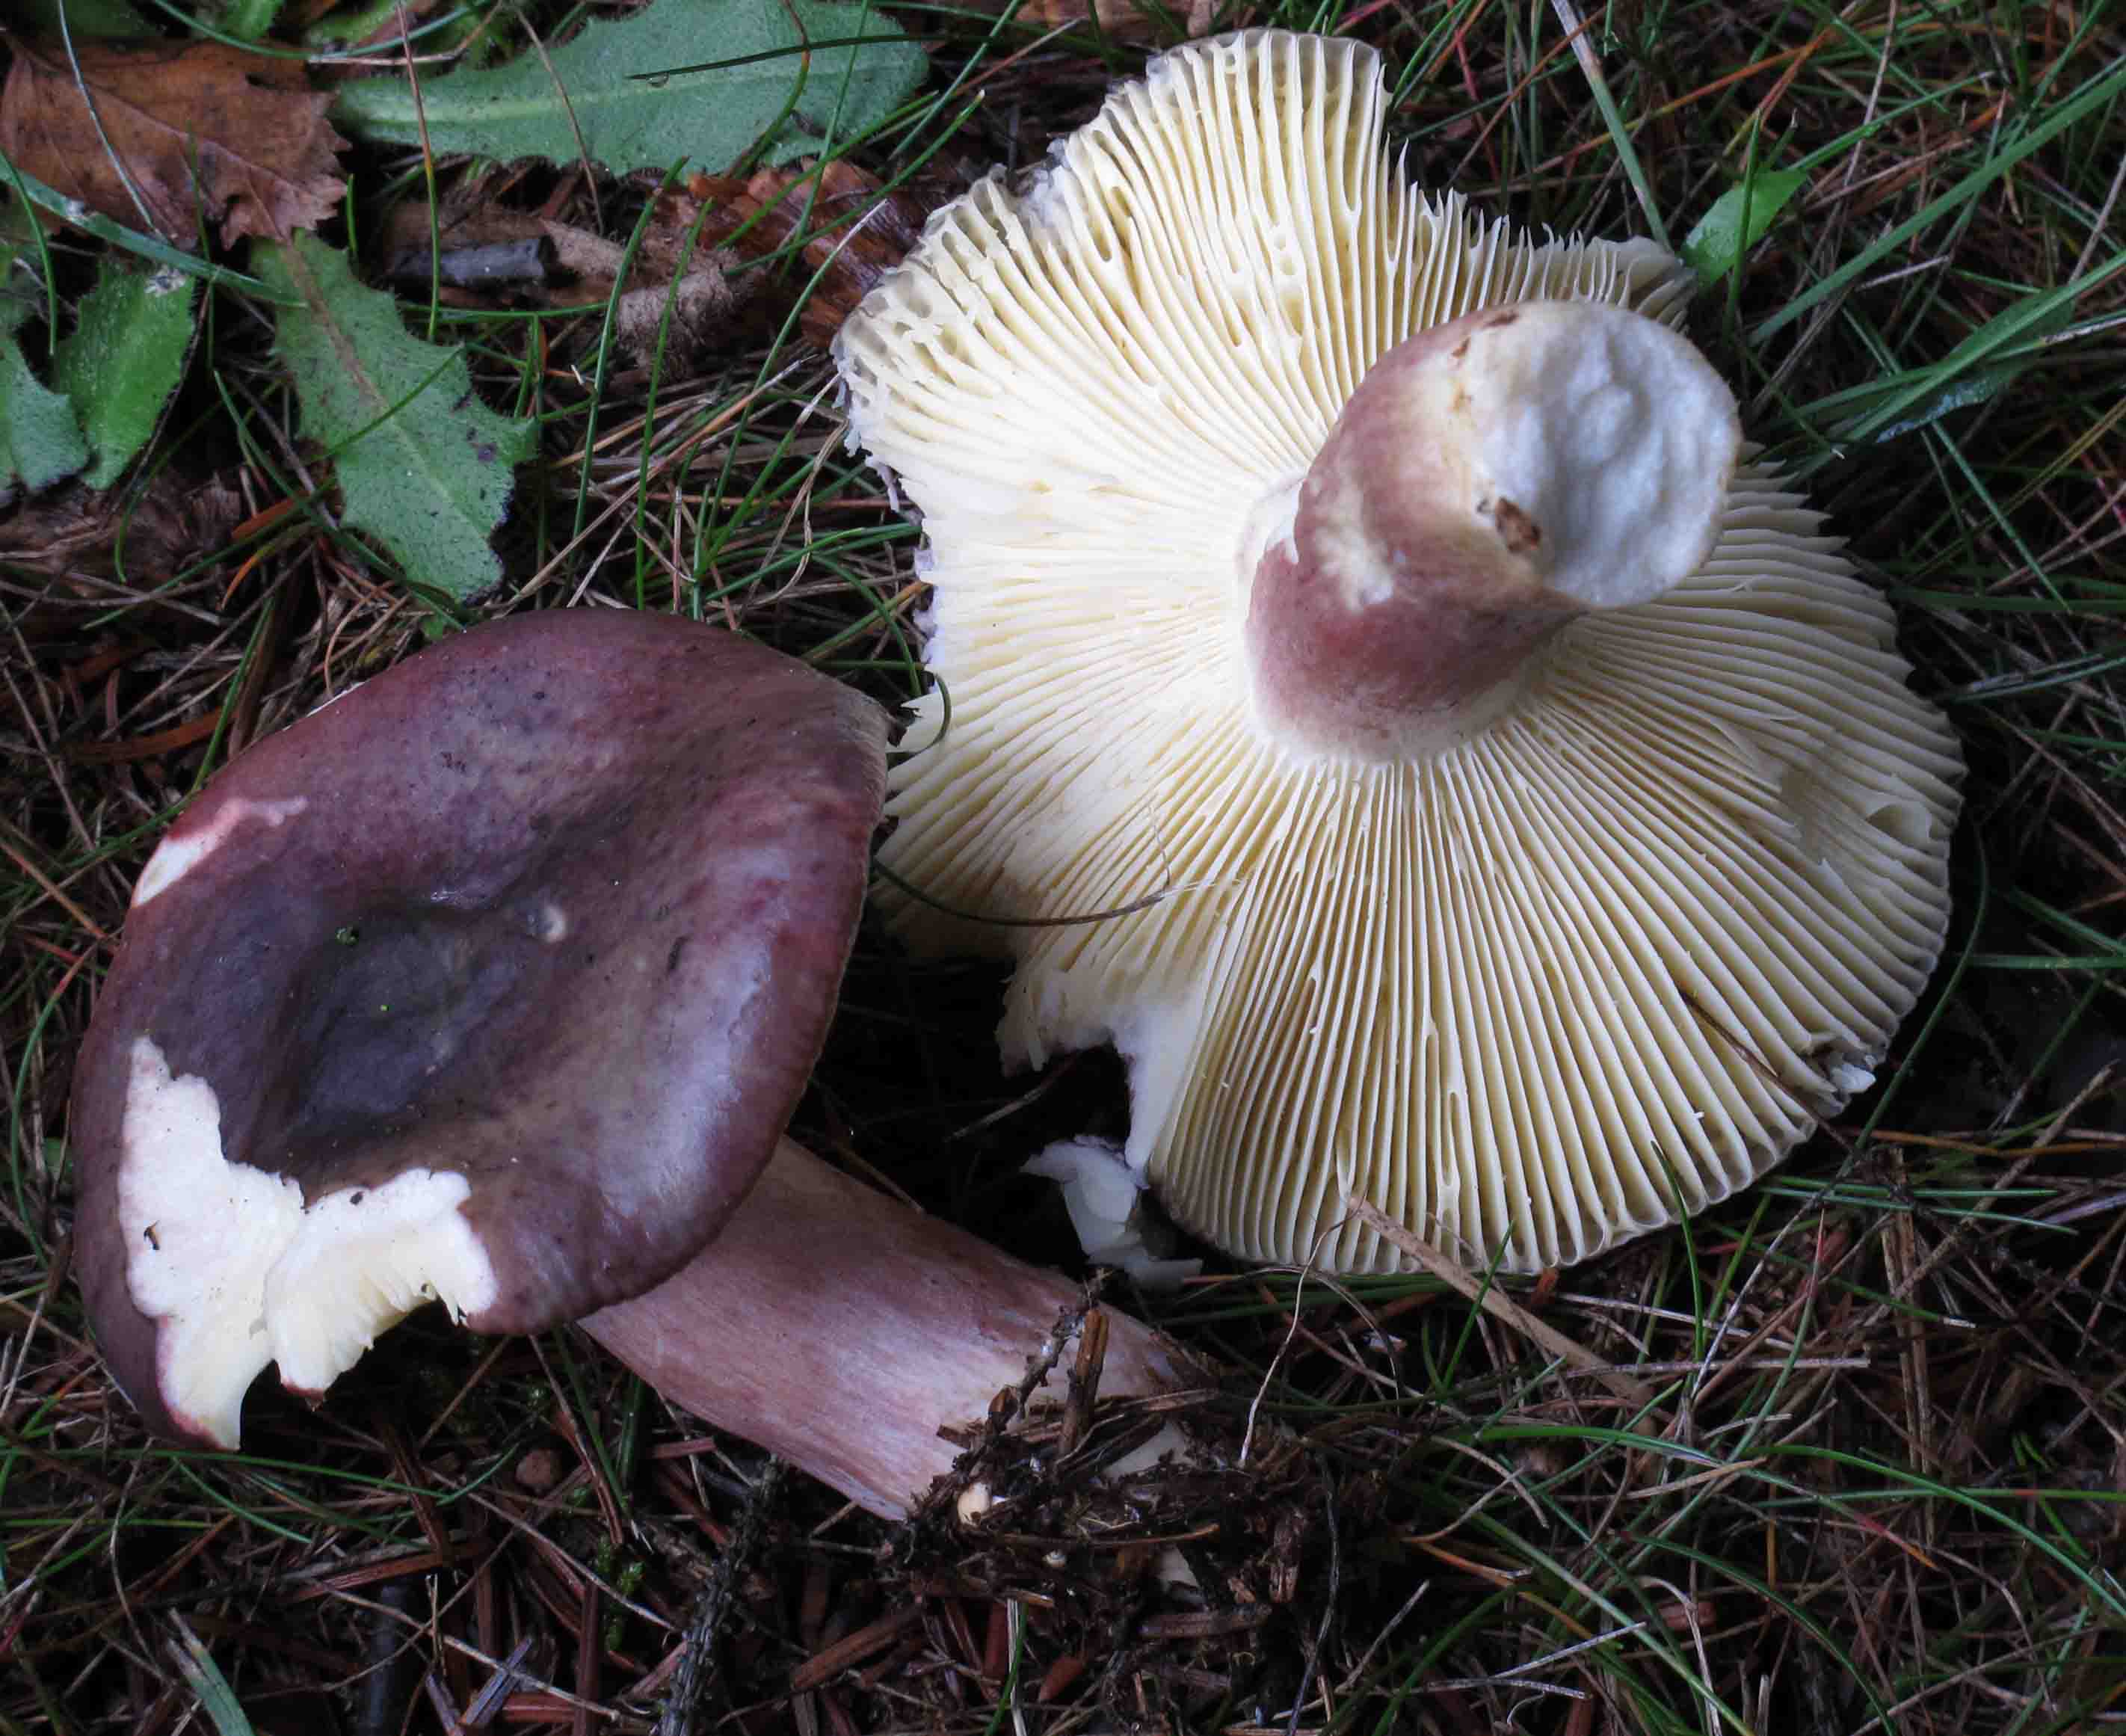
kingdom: Fungi
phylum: Basidiomycota
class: Agaricomycetes
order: Russulales
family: Russulaceae
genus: Russula
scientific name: Russula sardonia
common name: citronbladet skørhat
